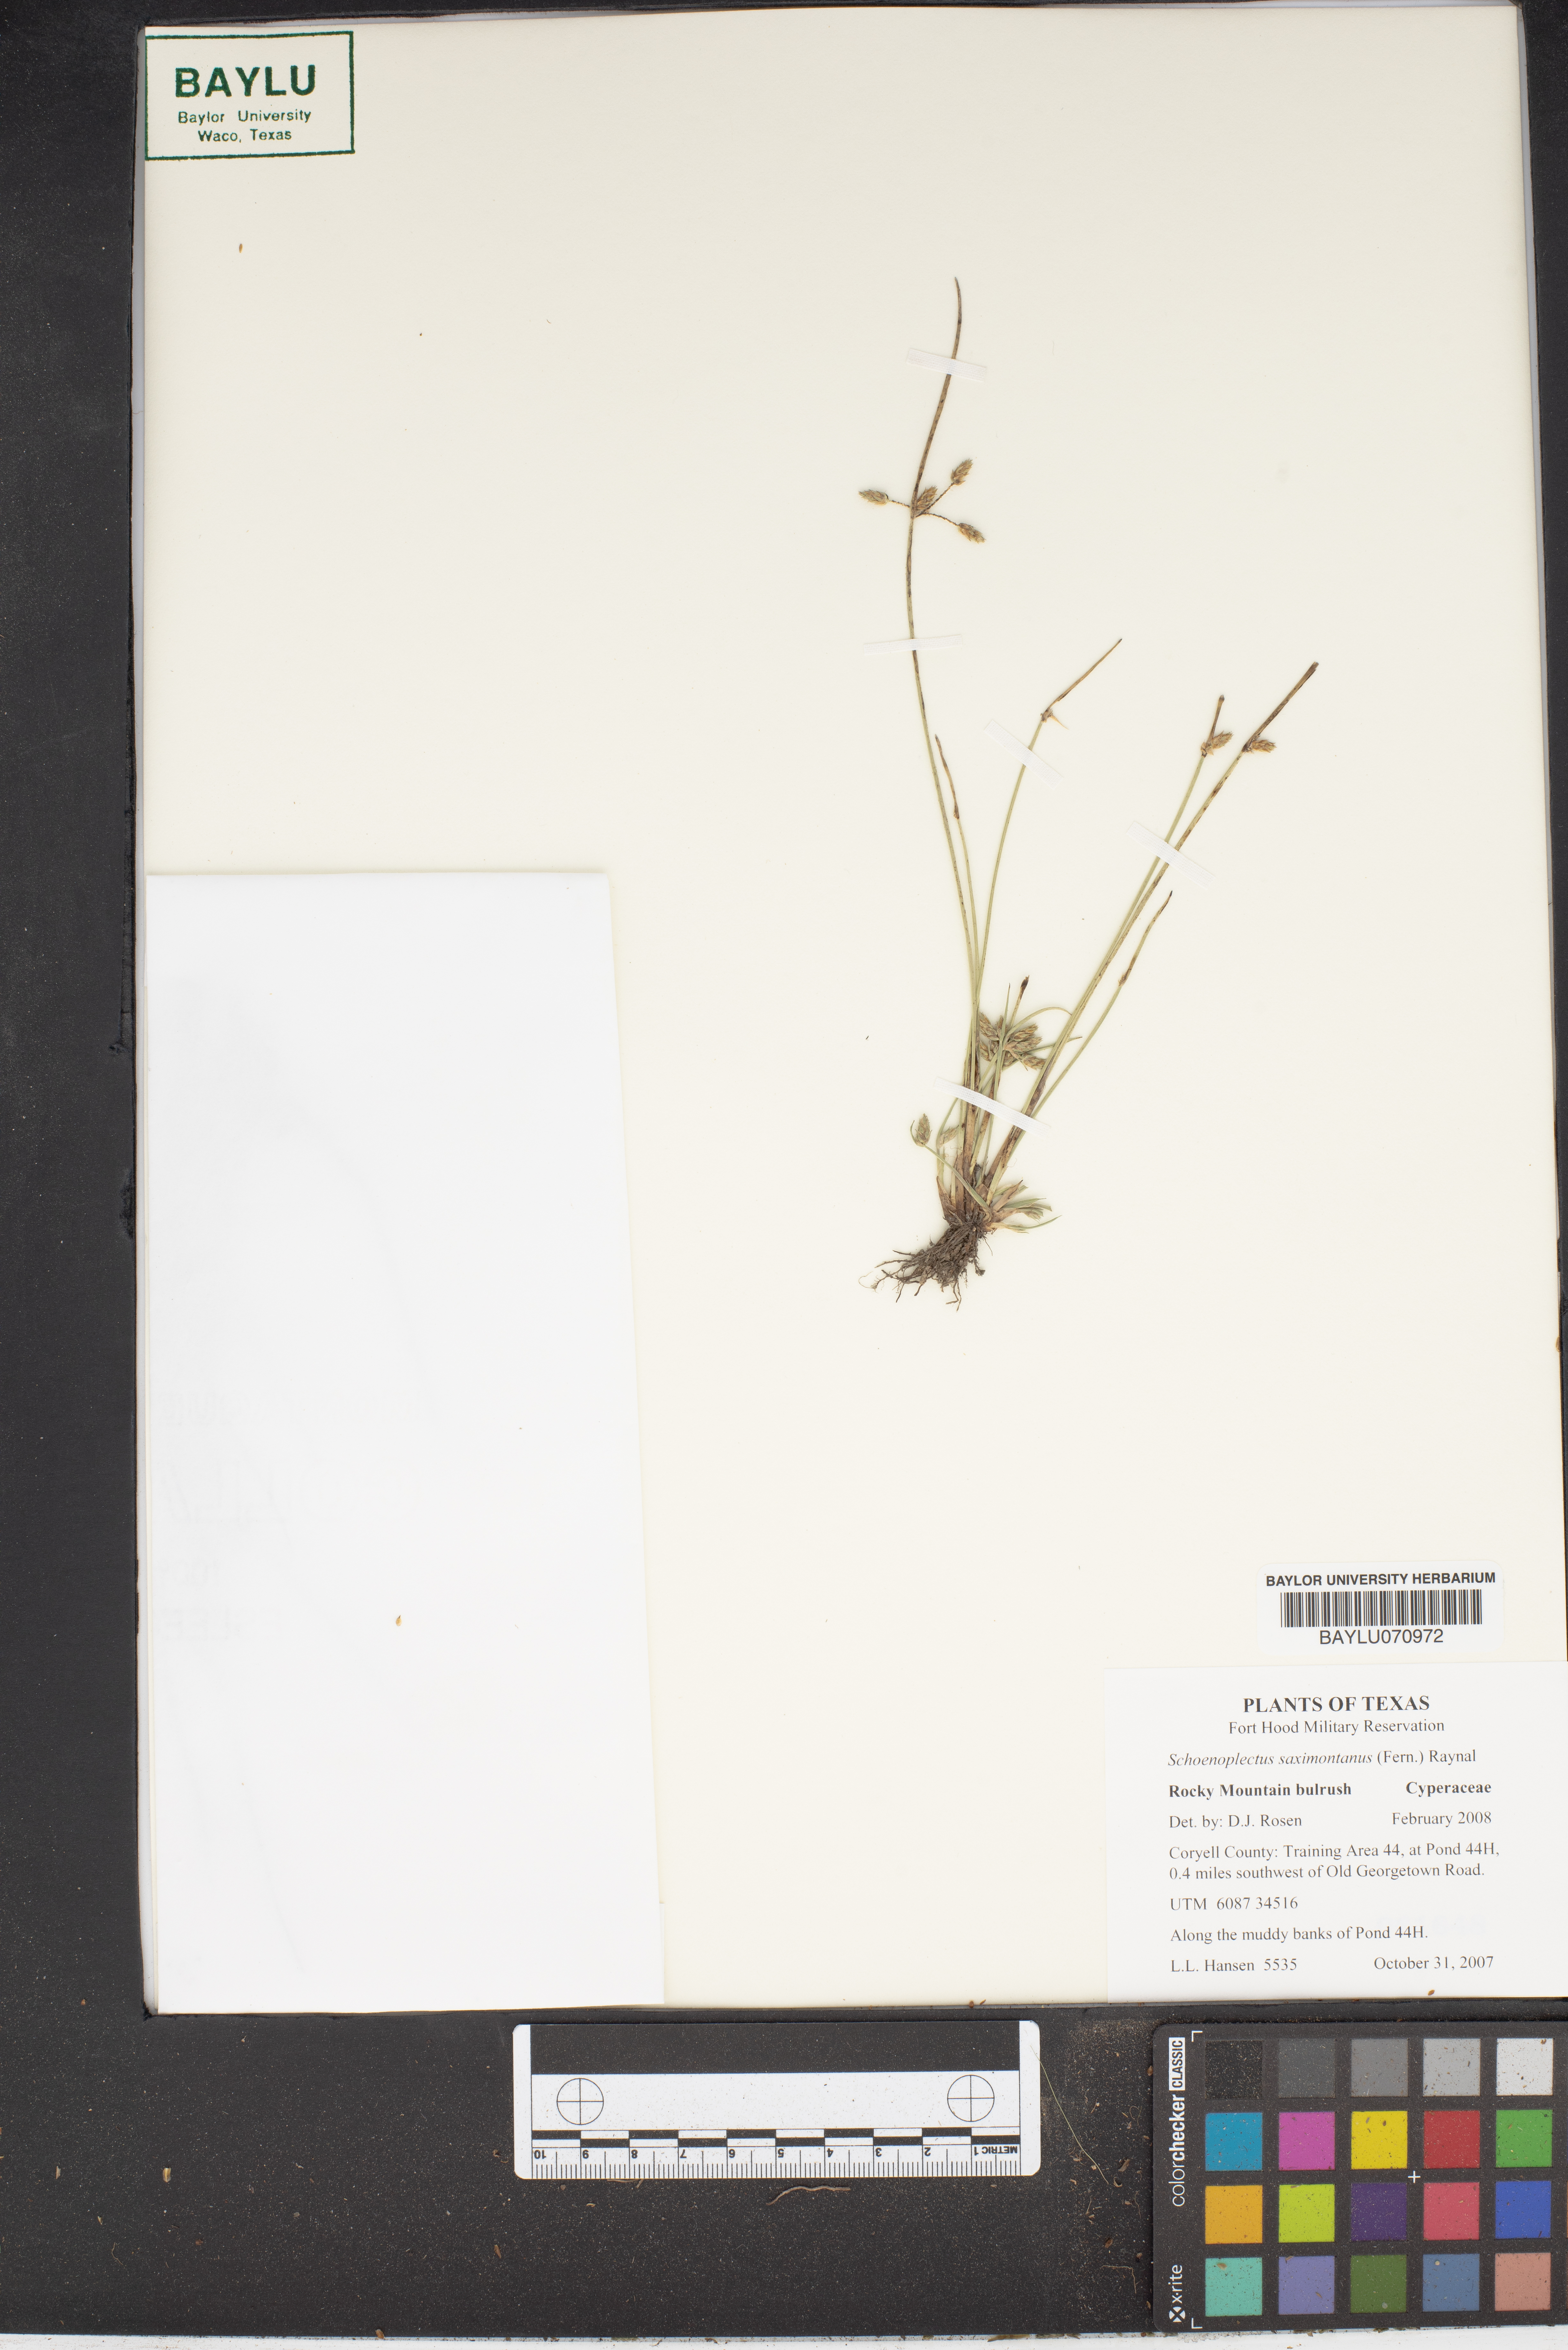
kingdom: Plantae
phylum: Tracheophyta
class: Liliopsida
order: Poales
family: Cyperaceae
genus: Schoenoplectiella
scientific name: Schoenoplectiella saximontana
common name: Rocky mountain clubrush
